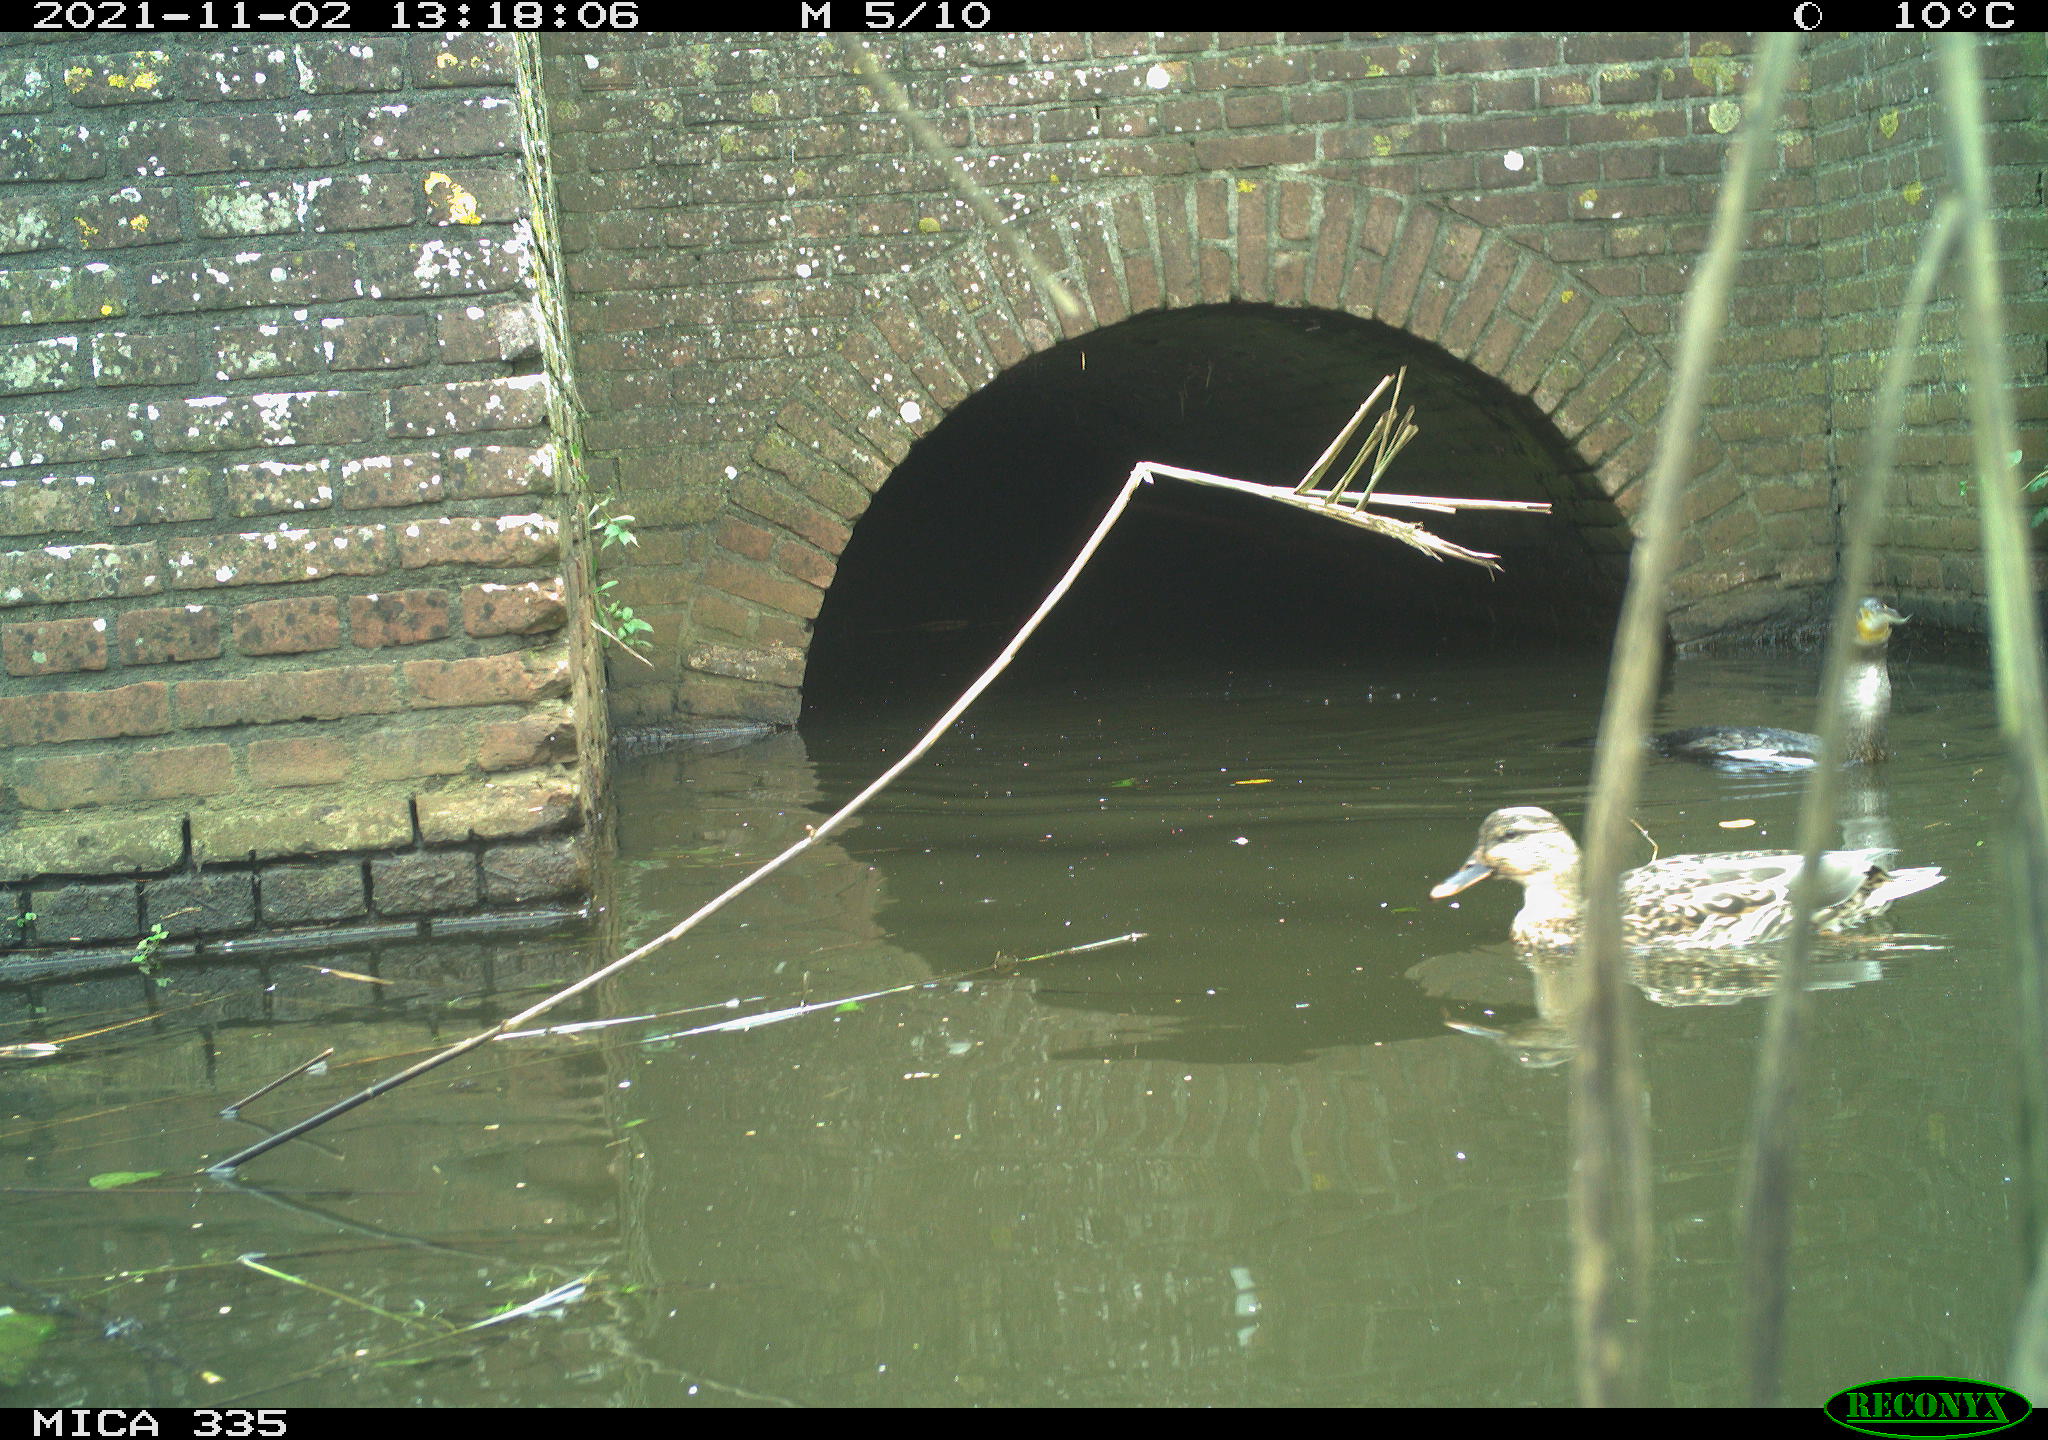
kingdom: Animalia
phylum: Chordata
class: Aves
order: Anseriformes
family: Anatidae
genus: Anas
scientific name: Anas platyrhynchos
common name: Mallard
